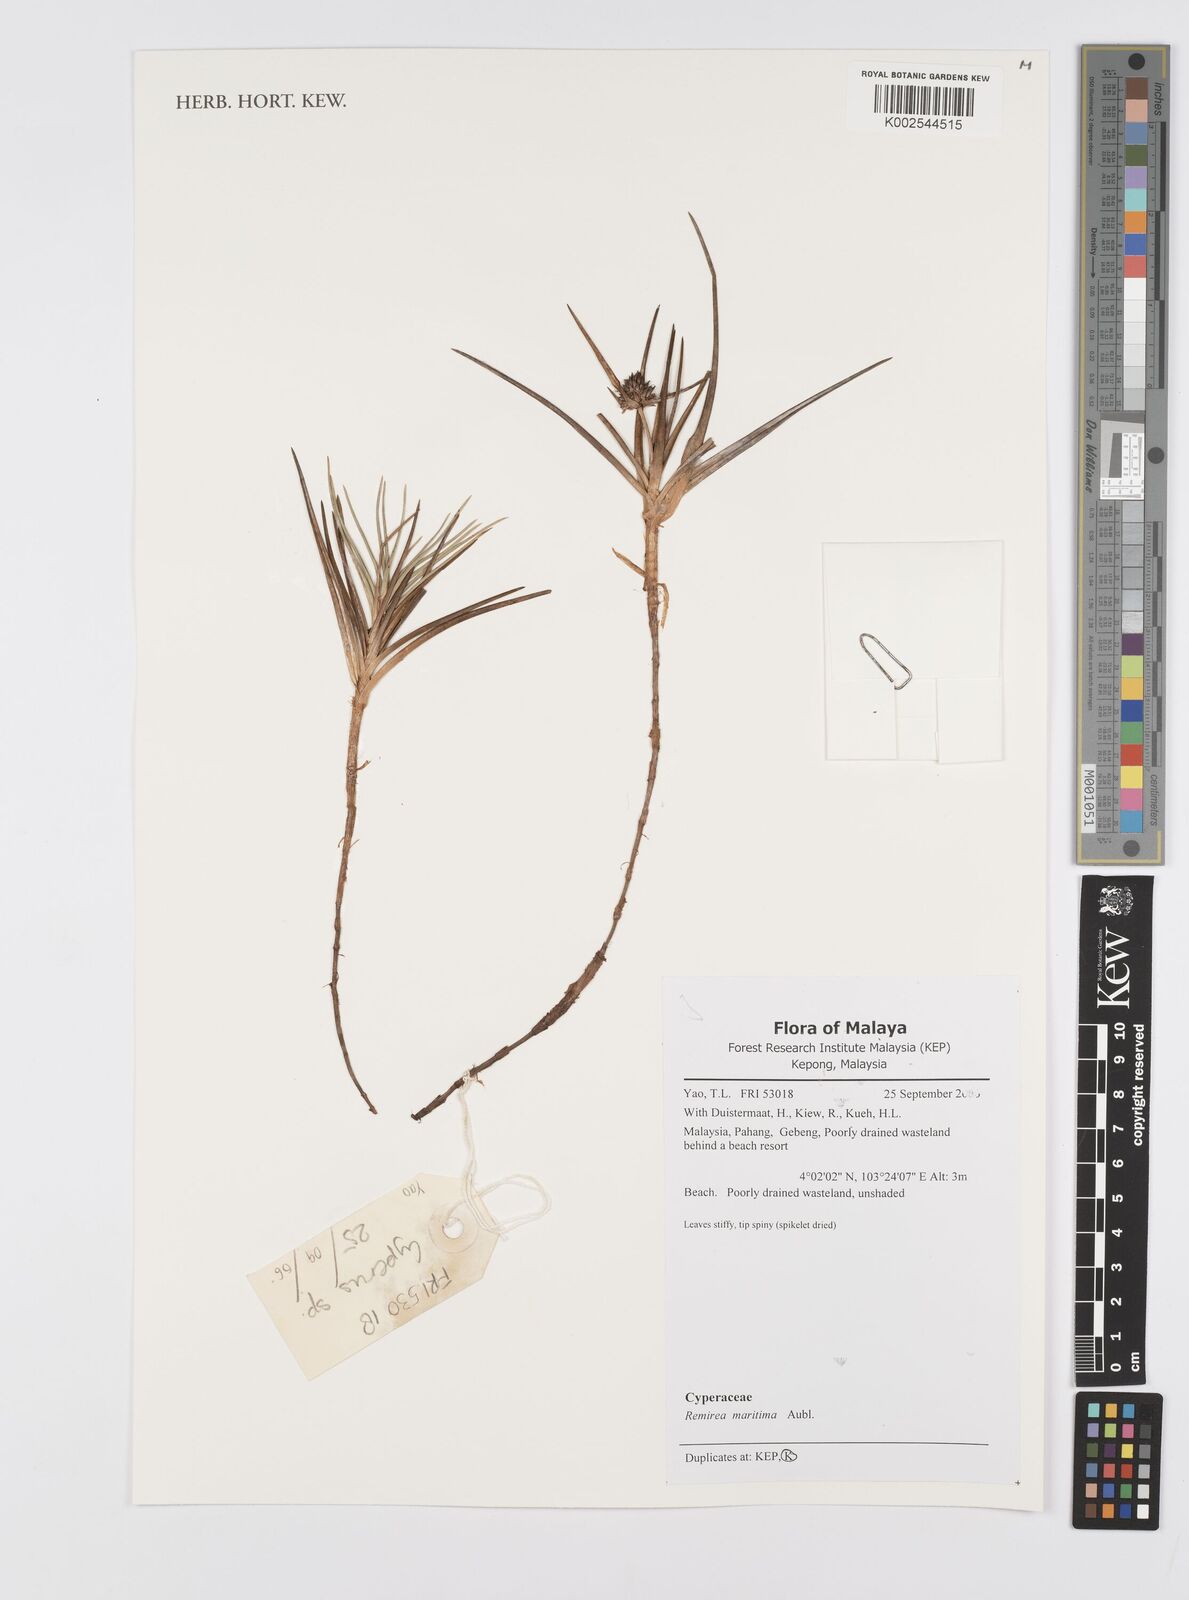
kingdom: Plantae
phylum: Tracheophyta
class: Liliopsida
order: Poales
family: Cyperaceae
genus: Cyperus
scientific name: Cyperus
